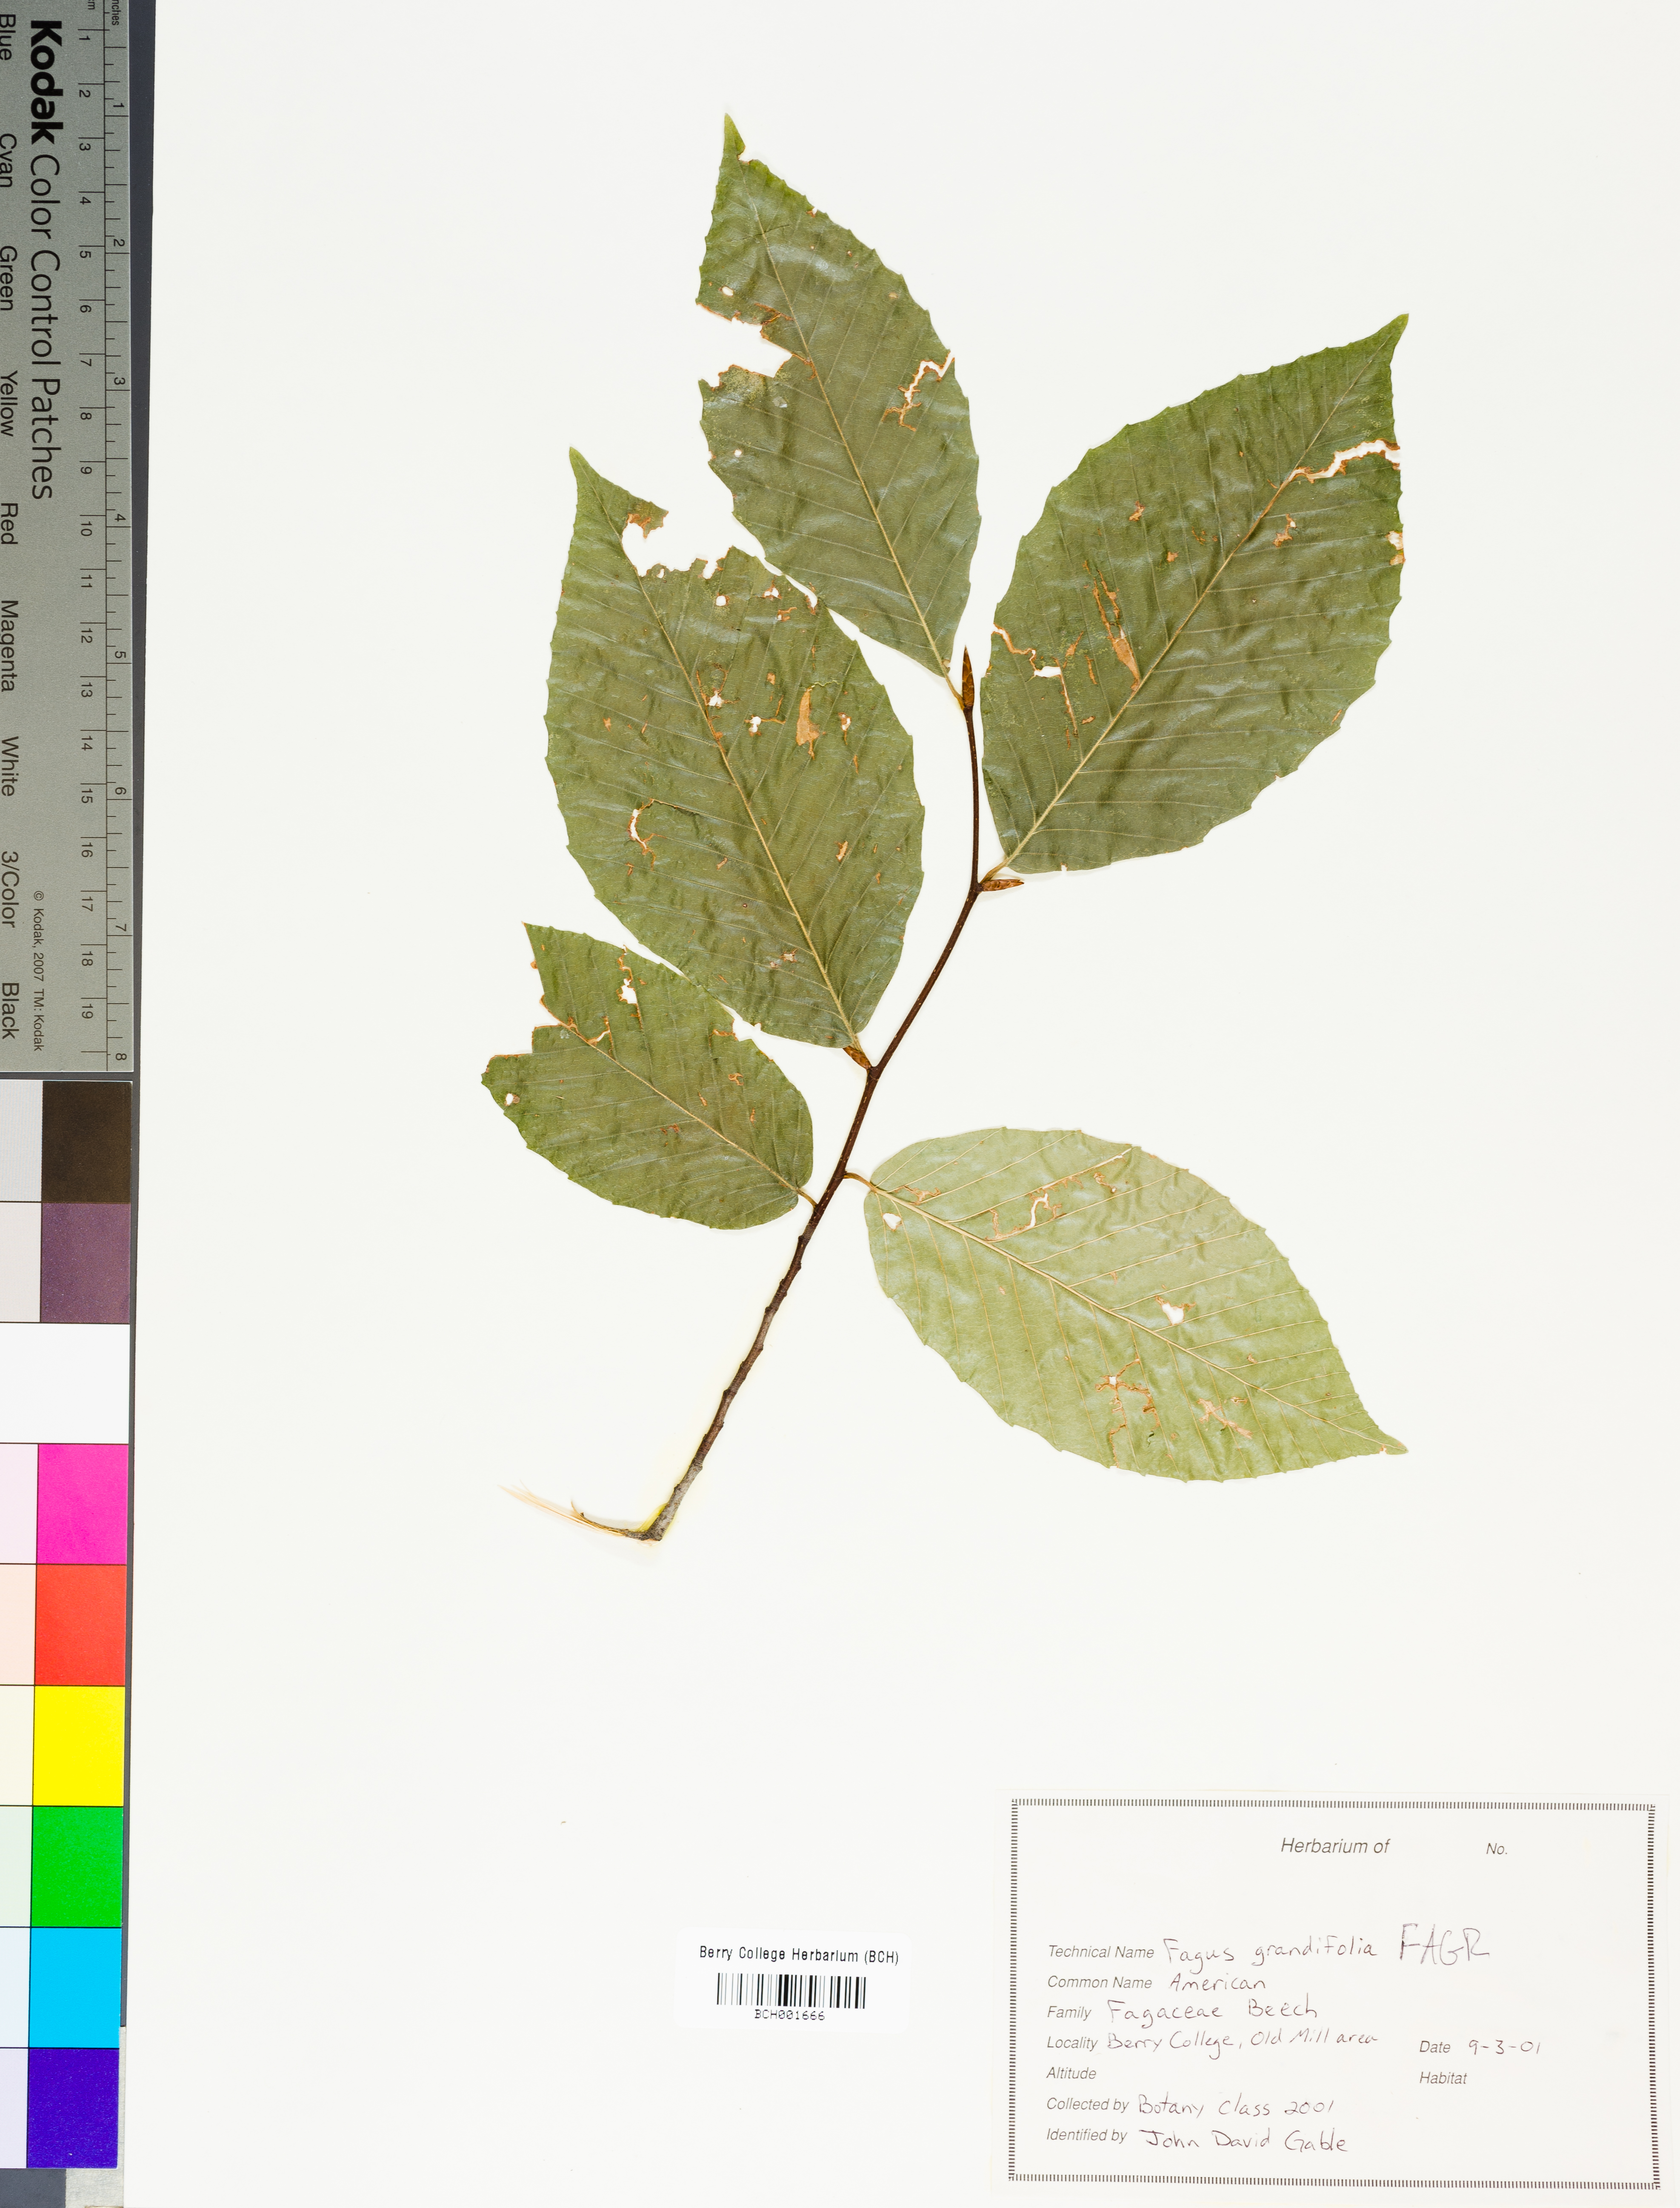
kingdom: Plantae
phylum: Tracheophyta
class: Magnoliopsida
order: Fagales
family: Fagaceae
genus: Fagus
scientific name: Fagus grandifolia
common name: American beech
